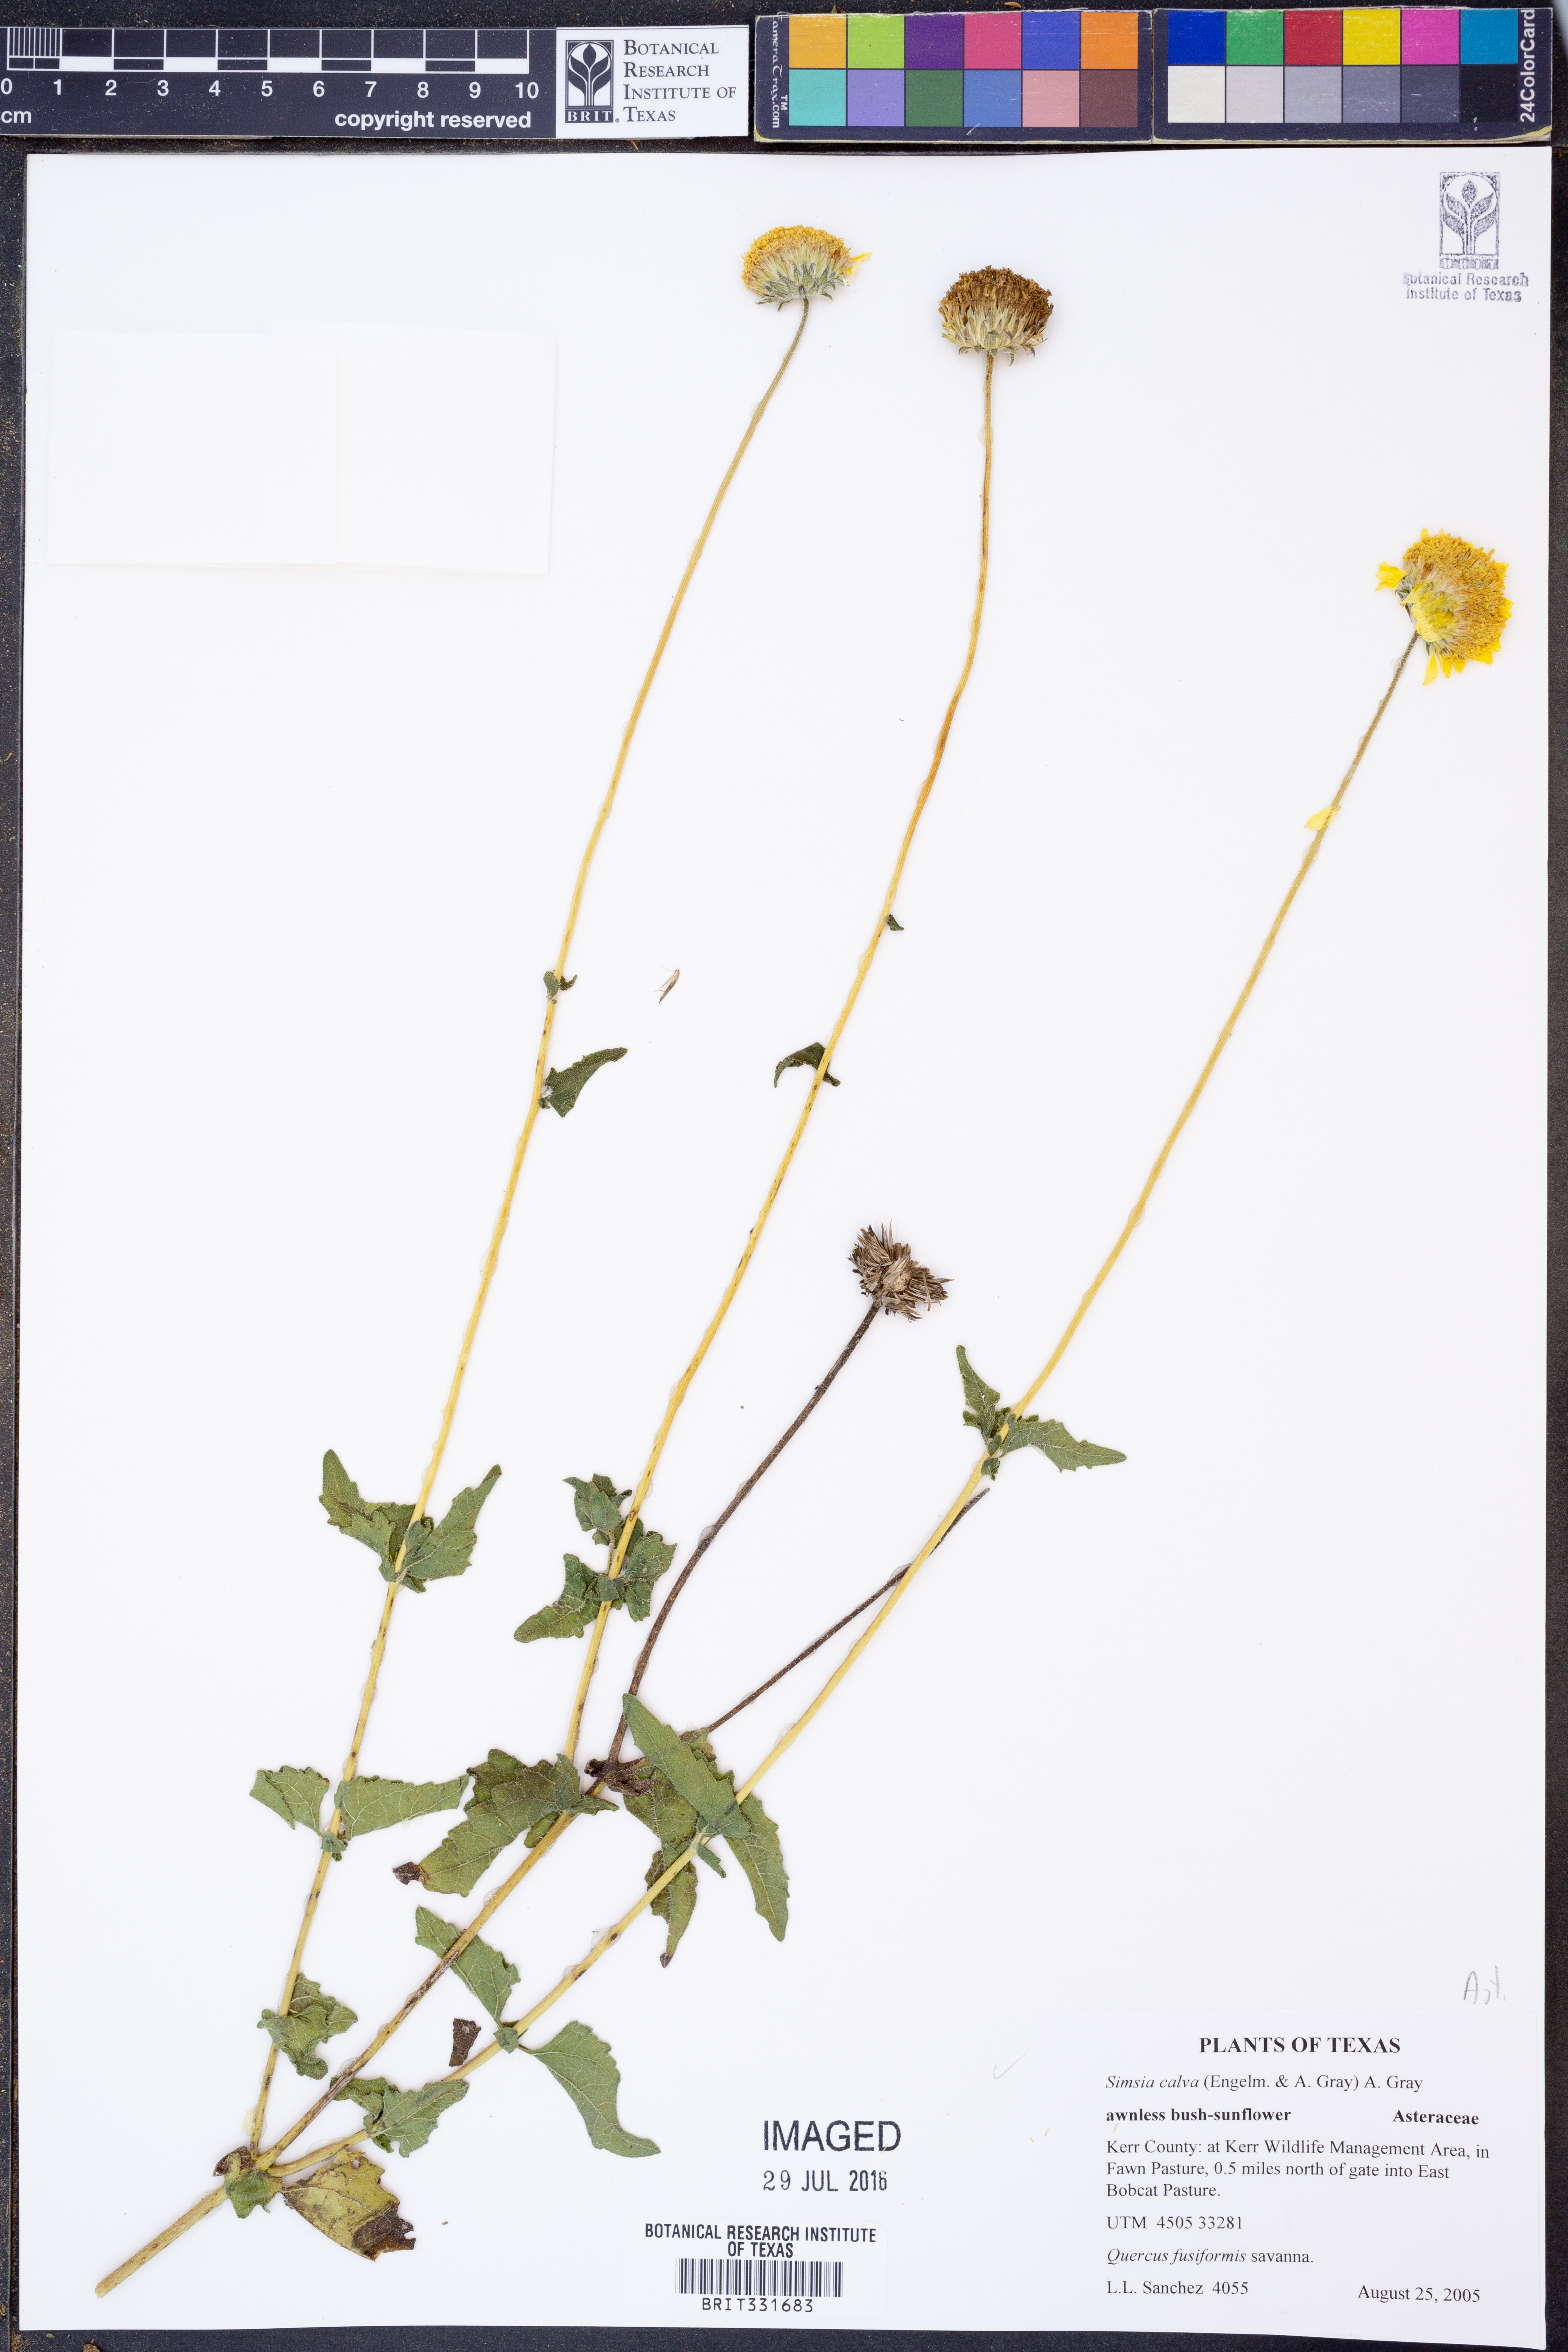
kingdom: Plantae
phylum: Tracheophyta
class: Magnoliopsida
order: Asterales
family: Asteraceae
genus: Simsia
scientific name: Simsia calva
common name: Awnless bush-sunflower
